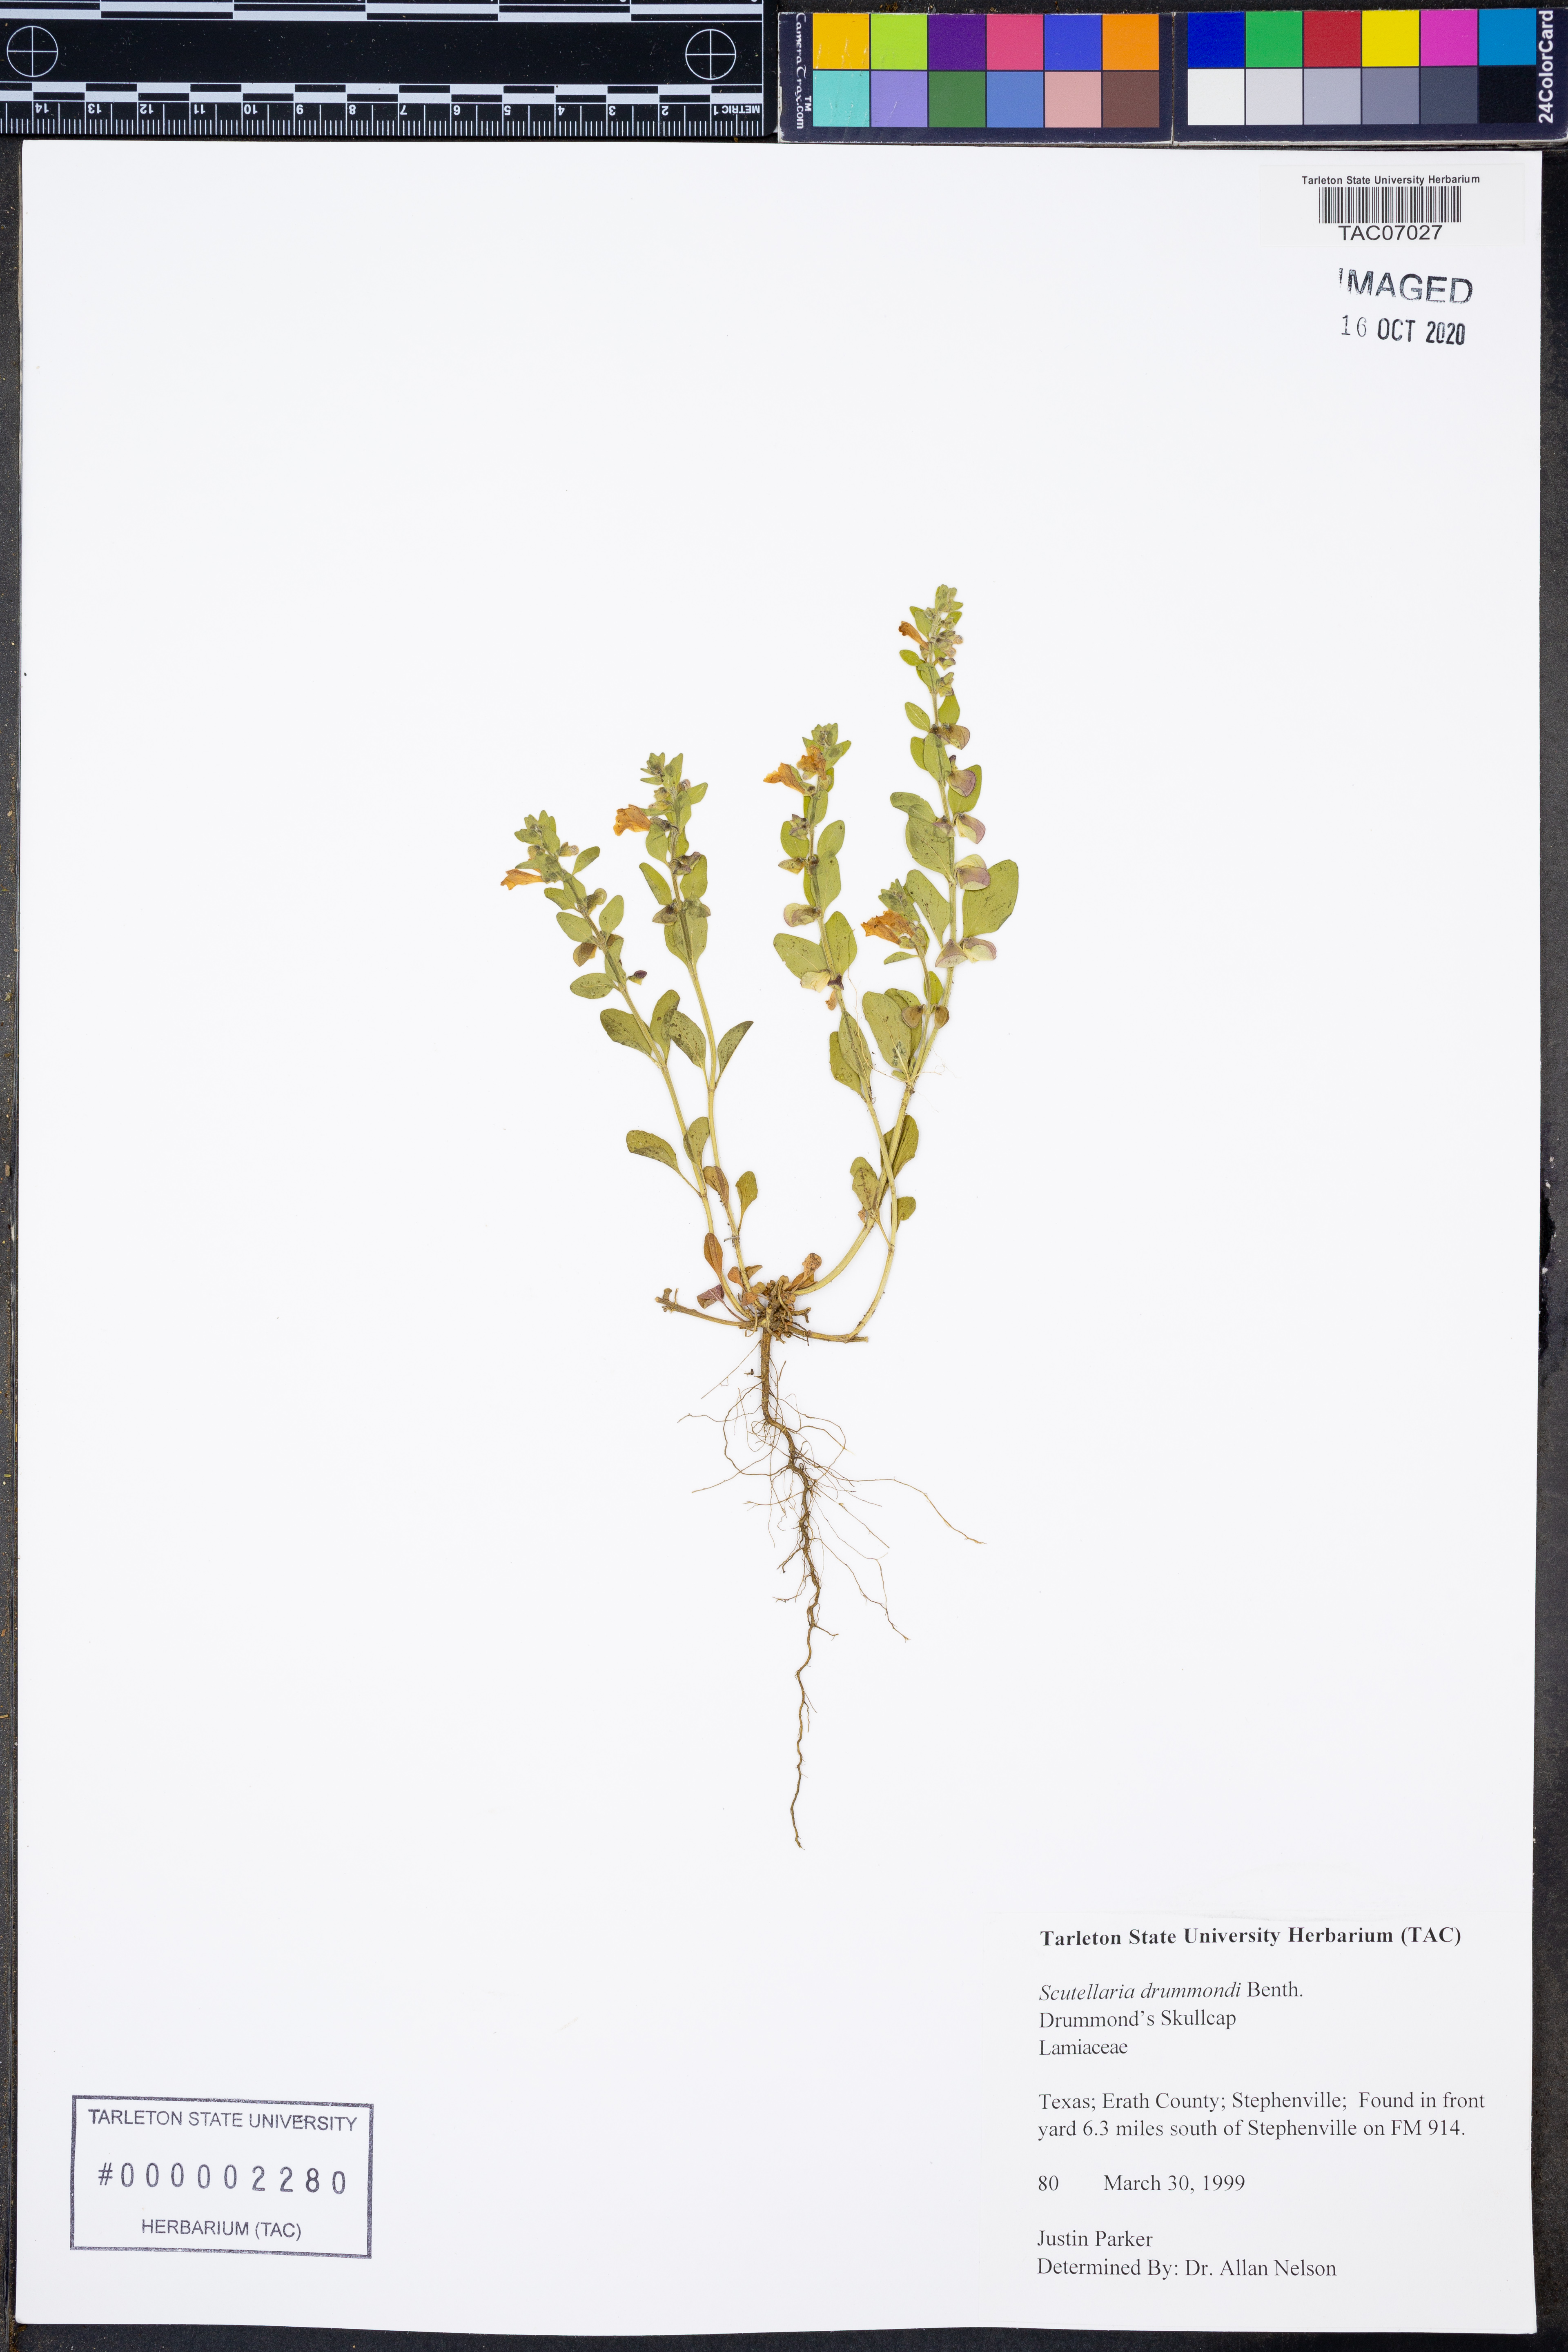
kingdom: Plantae
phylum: Tracheophyta
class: Magnoliopsida
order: Lamiales
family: Lamiaceae
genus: Scutellaria
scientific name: Scutellaria drummondii
